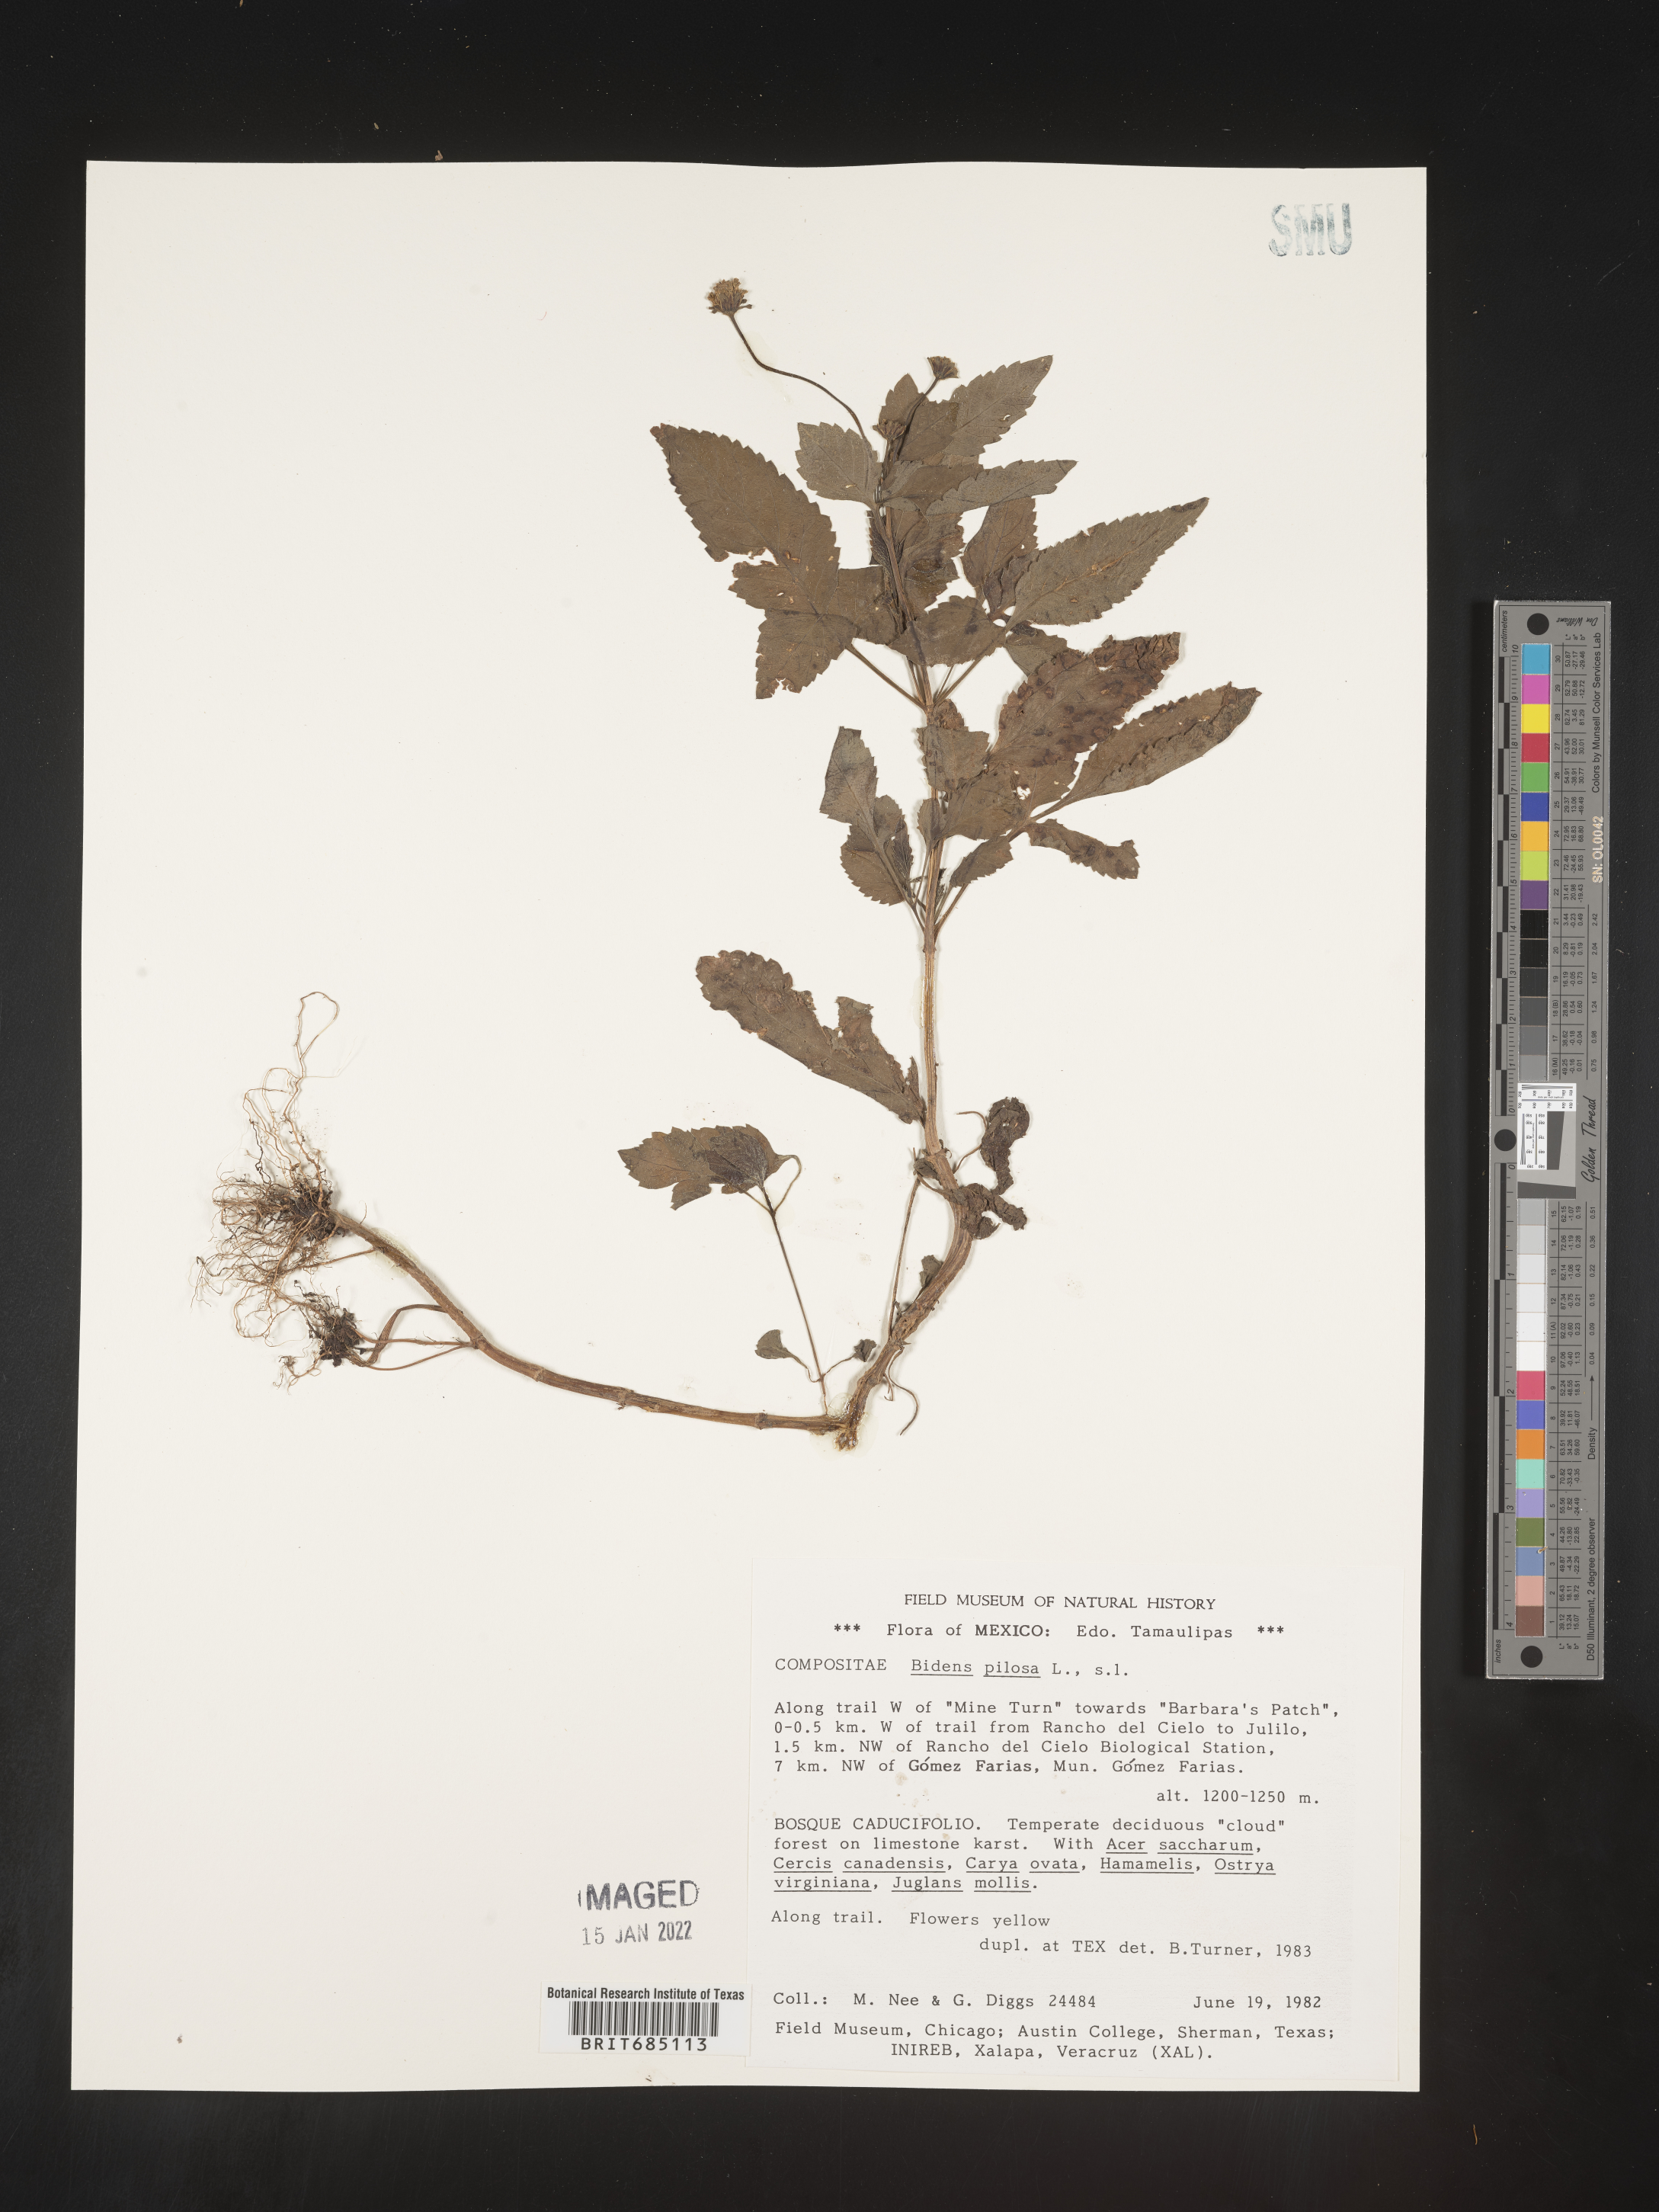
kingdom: Plantae
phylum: Tracheophyta
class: Magnoliopsida
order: Asterales
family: Asteraceae
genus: Bidens
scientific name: Bidens
